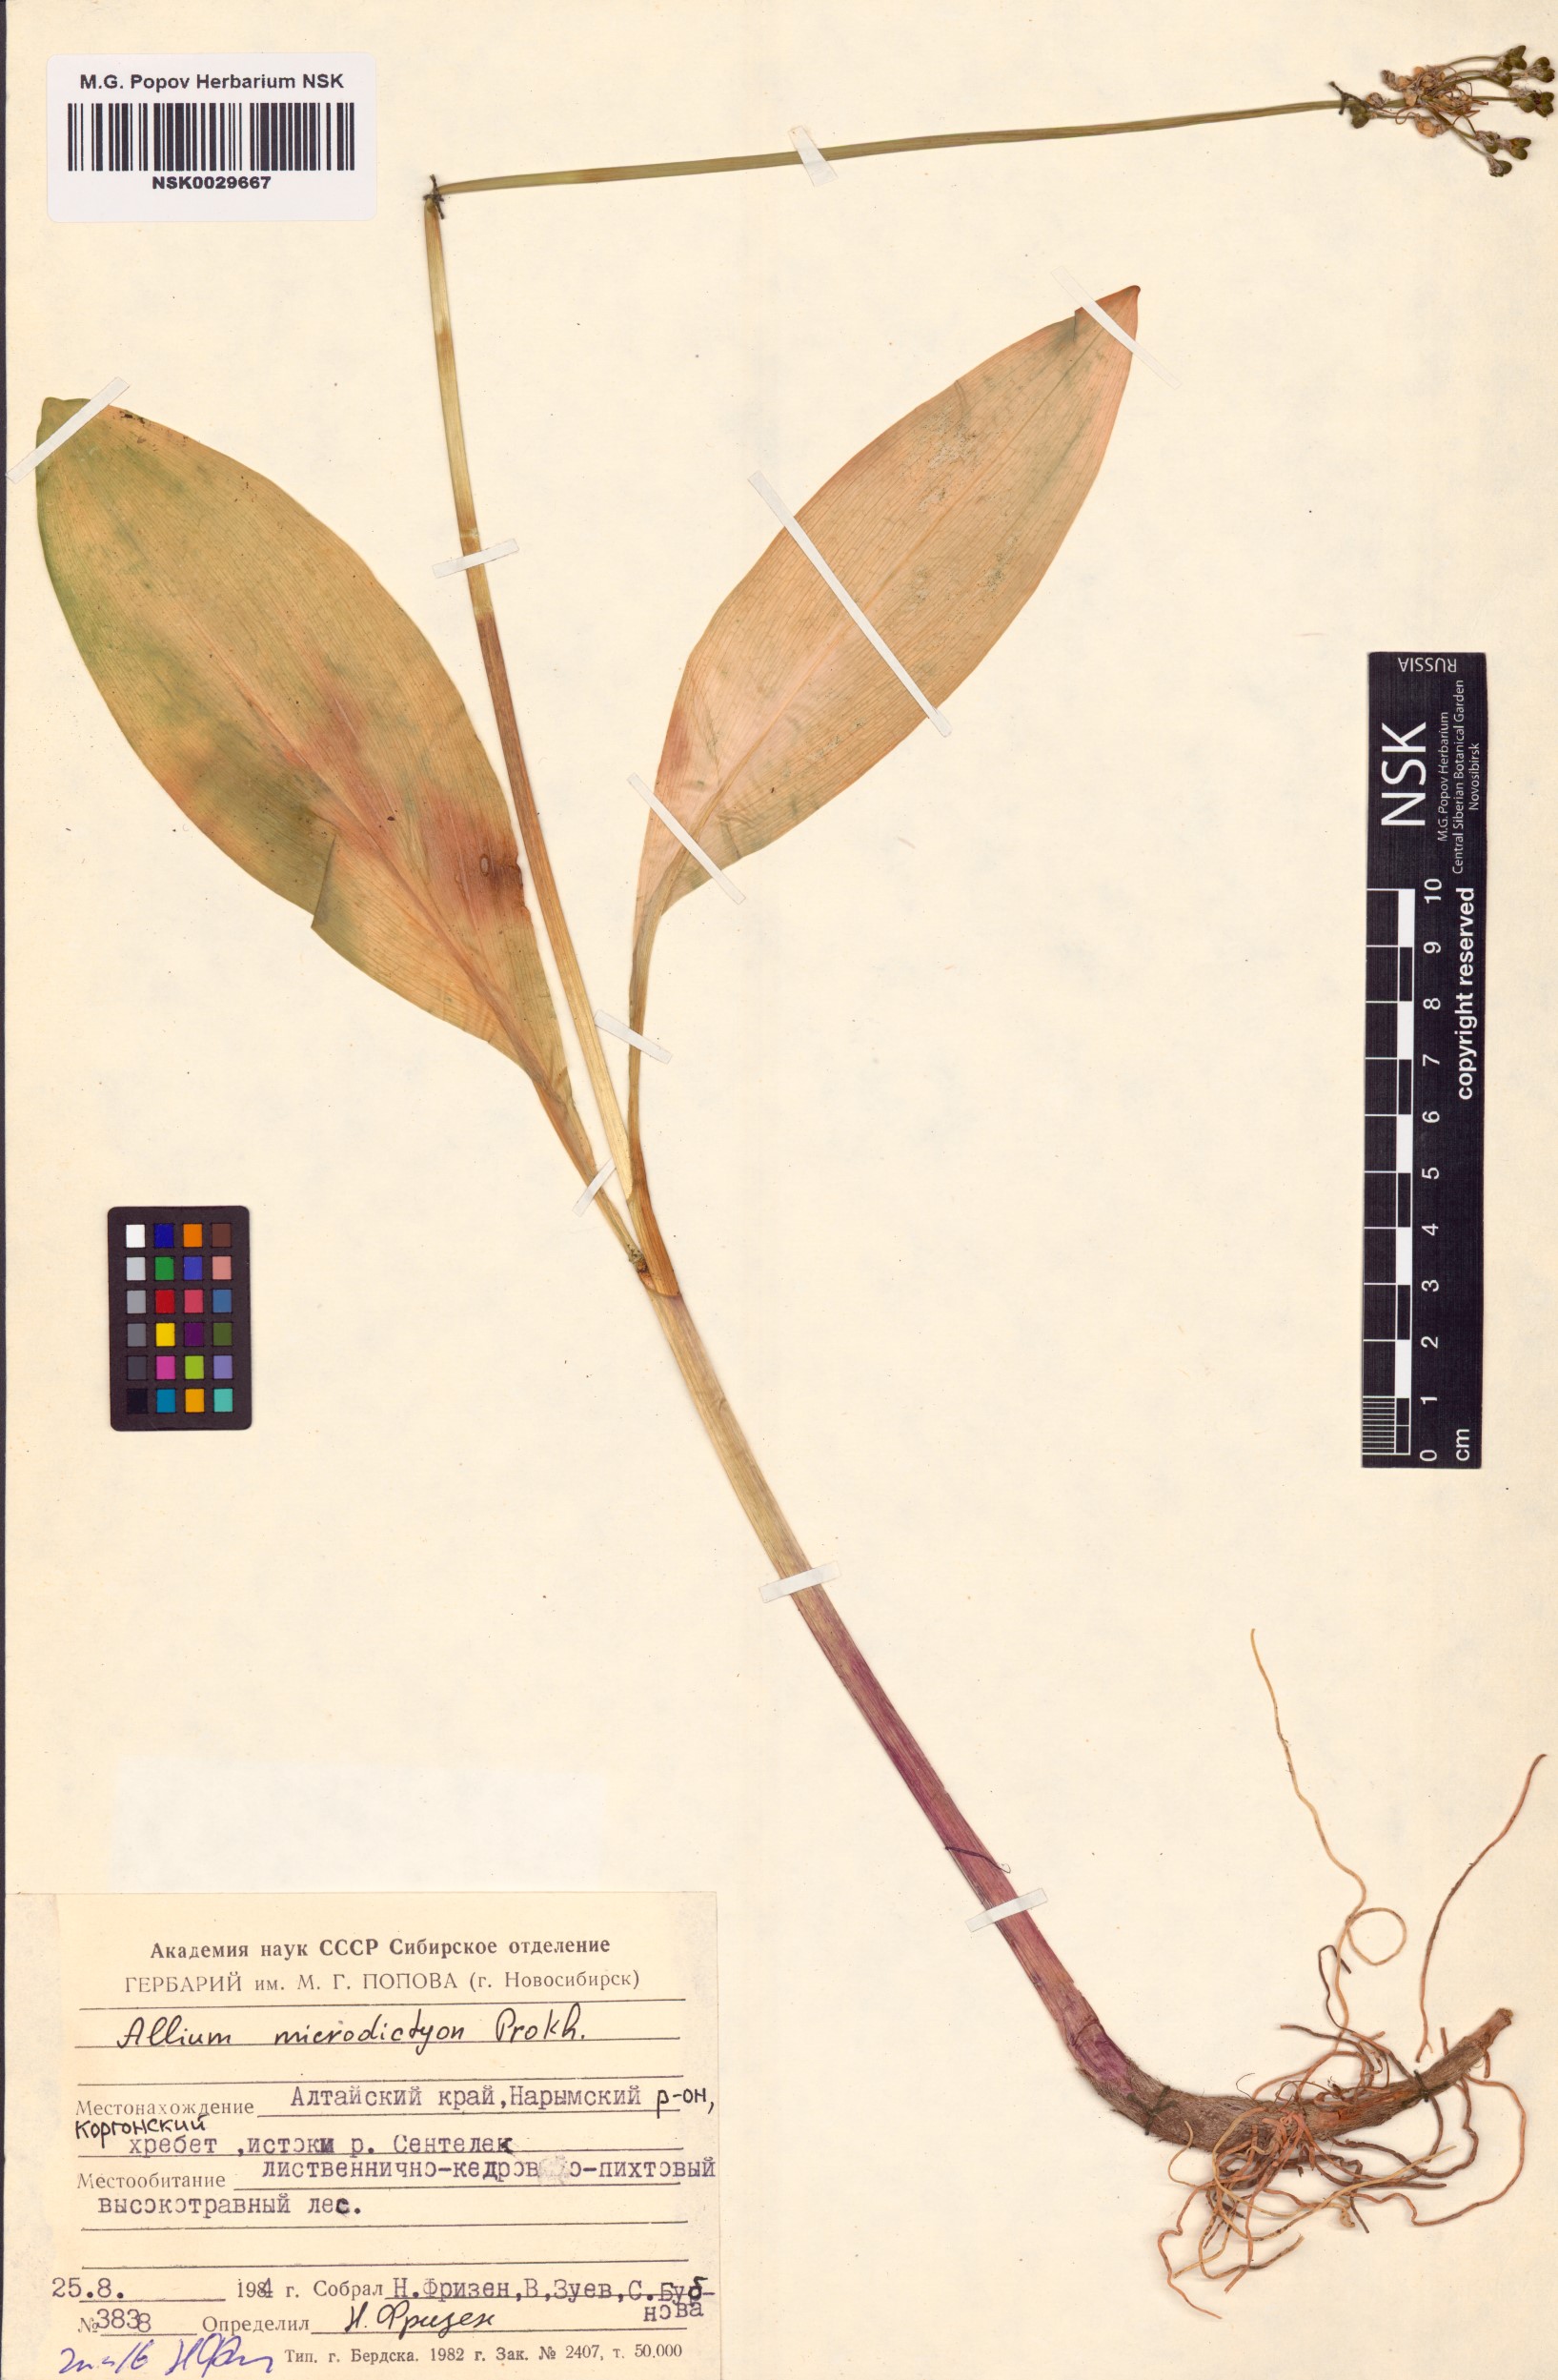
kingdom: Plantae
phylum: Tracheophyta
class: Liliopsida
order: Asparagales
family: Amaryllidaceae
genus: Allium
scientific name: Allium microdictyon
